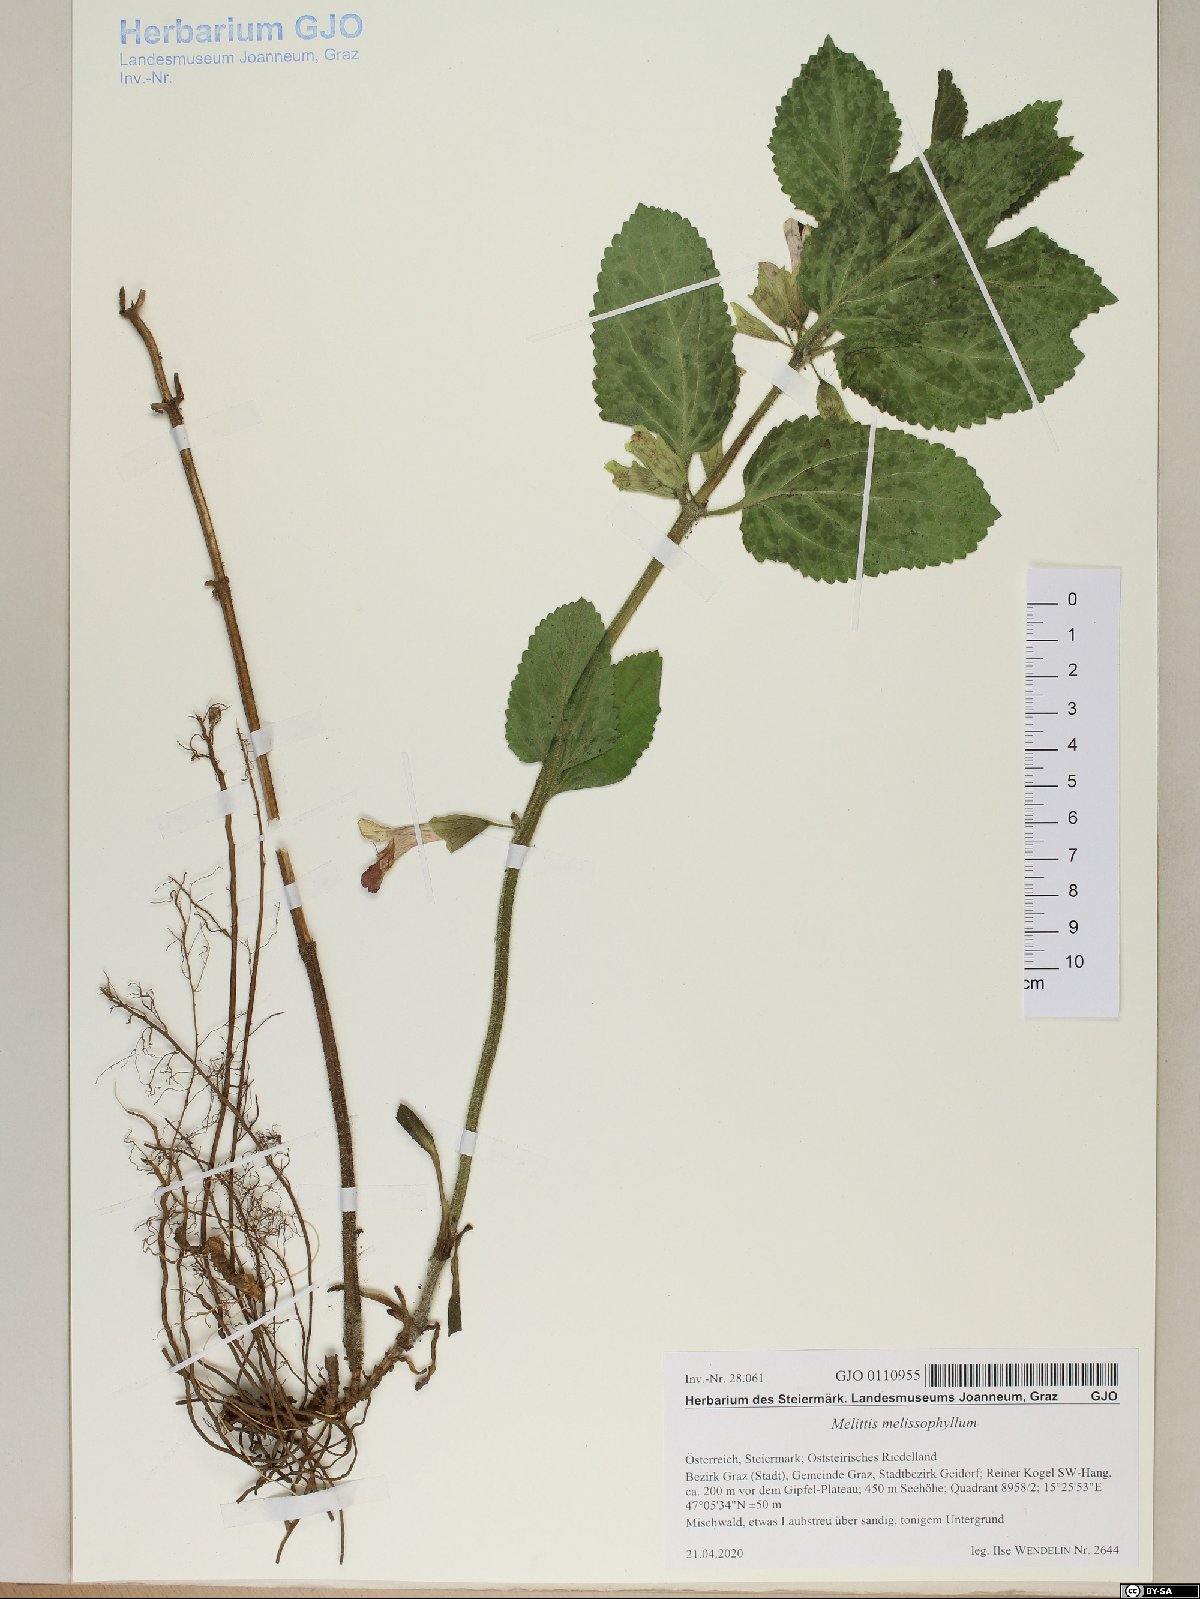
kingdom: Plantae
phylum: Tracheophyta
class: Magnoliopsida
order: Lamiales
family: Lamiaceae
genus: Melittis
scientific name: Melittis melissophyllum
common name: Bastard balm
